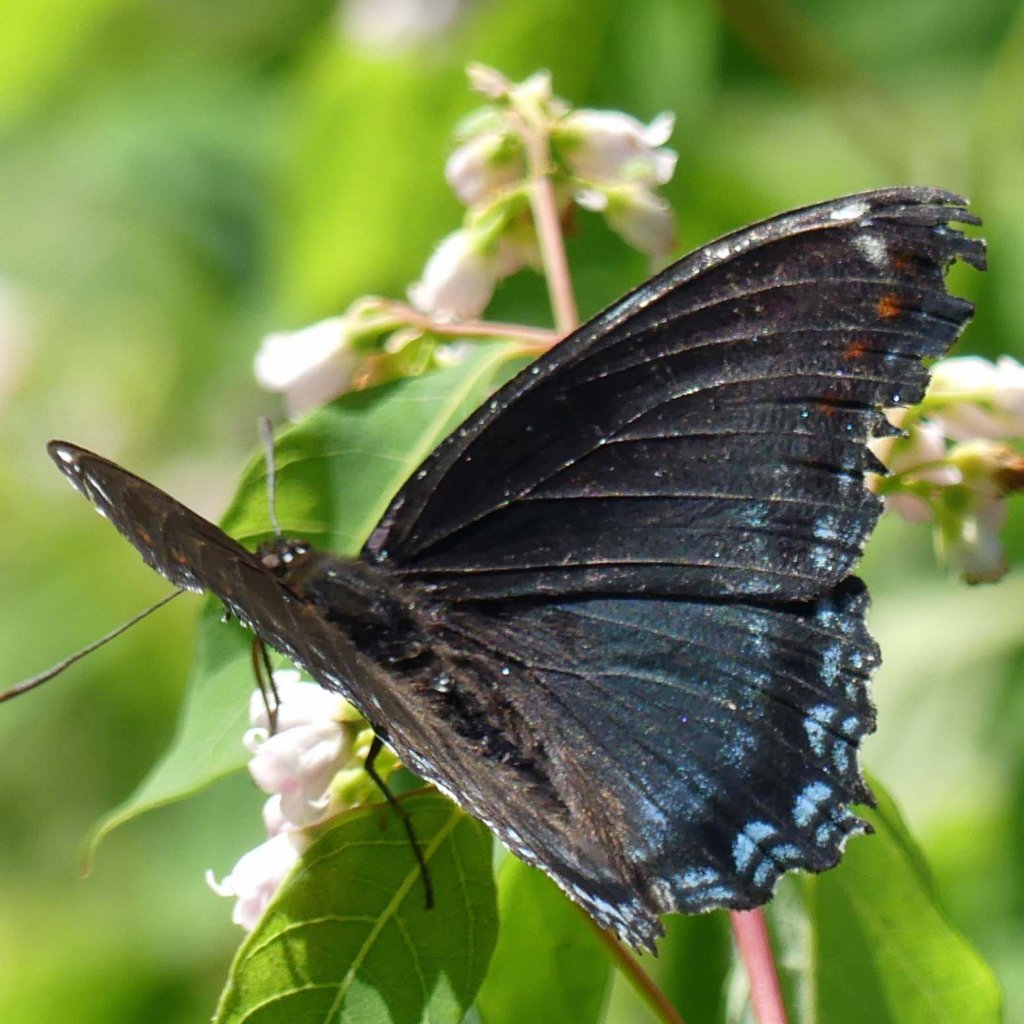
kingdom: Animalia
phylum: Arthropoda
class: Insecta
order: Lepidoptera
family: Nymphalidae
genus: Limenitis
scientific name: Limenitis astyanax
